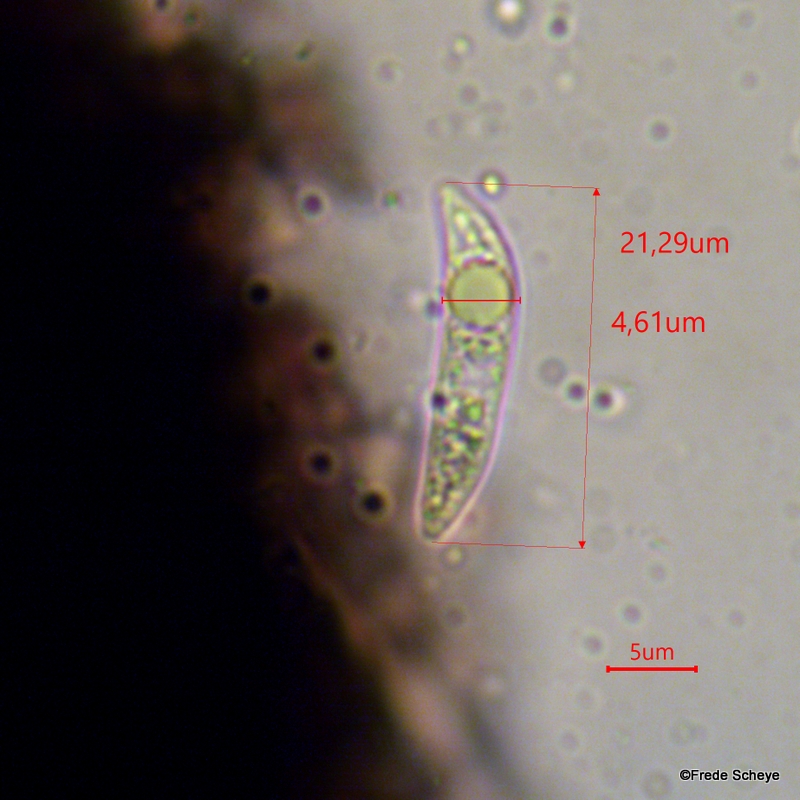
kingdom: Fungi
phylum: Ascomycota
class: Sordariomycetes
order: Glomerellales
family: Glomerellaceae
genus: Colletotrichum
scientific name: Colletotrichum dematium
